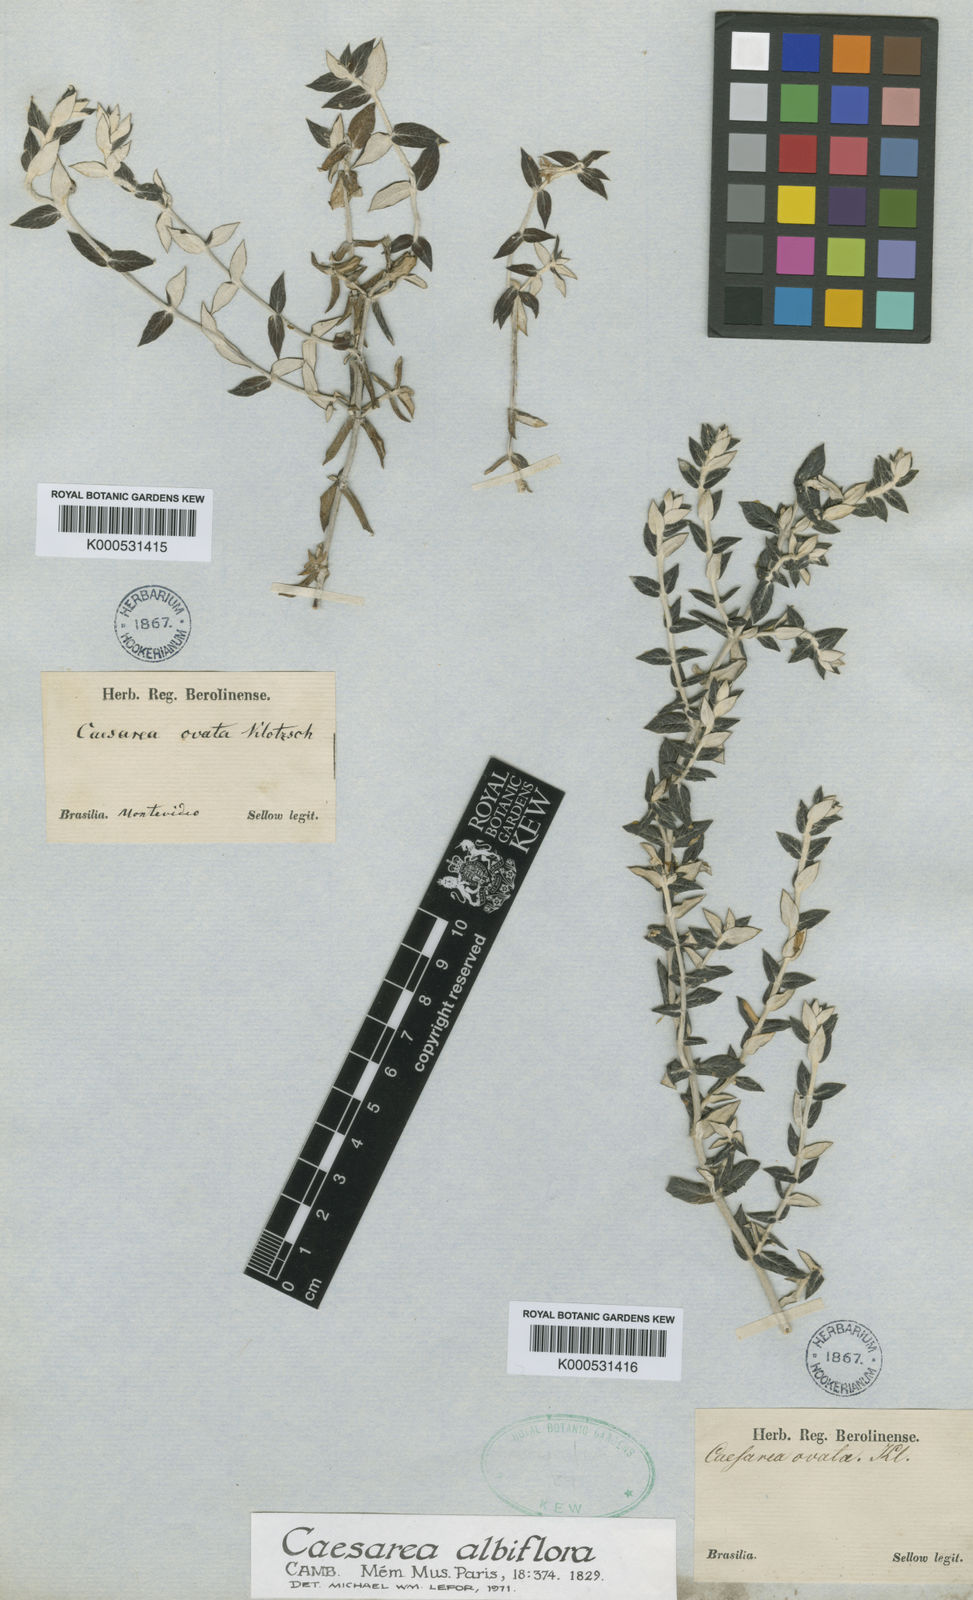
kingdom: Plantae
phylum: Tracheophyta
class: Magnoliopsida
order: Geraniales
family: Vivianiaceae
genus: Viviania
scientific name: Viviania
